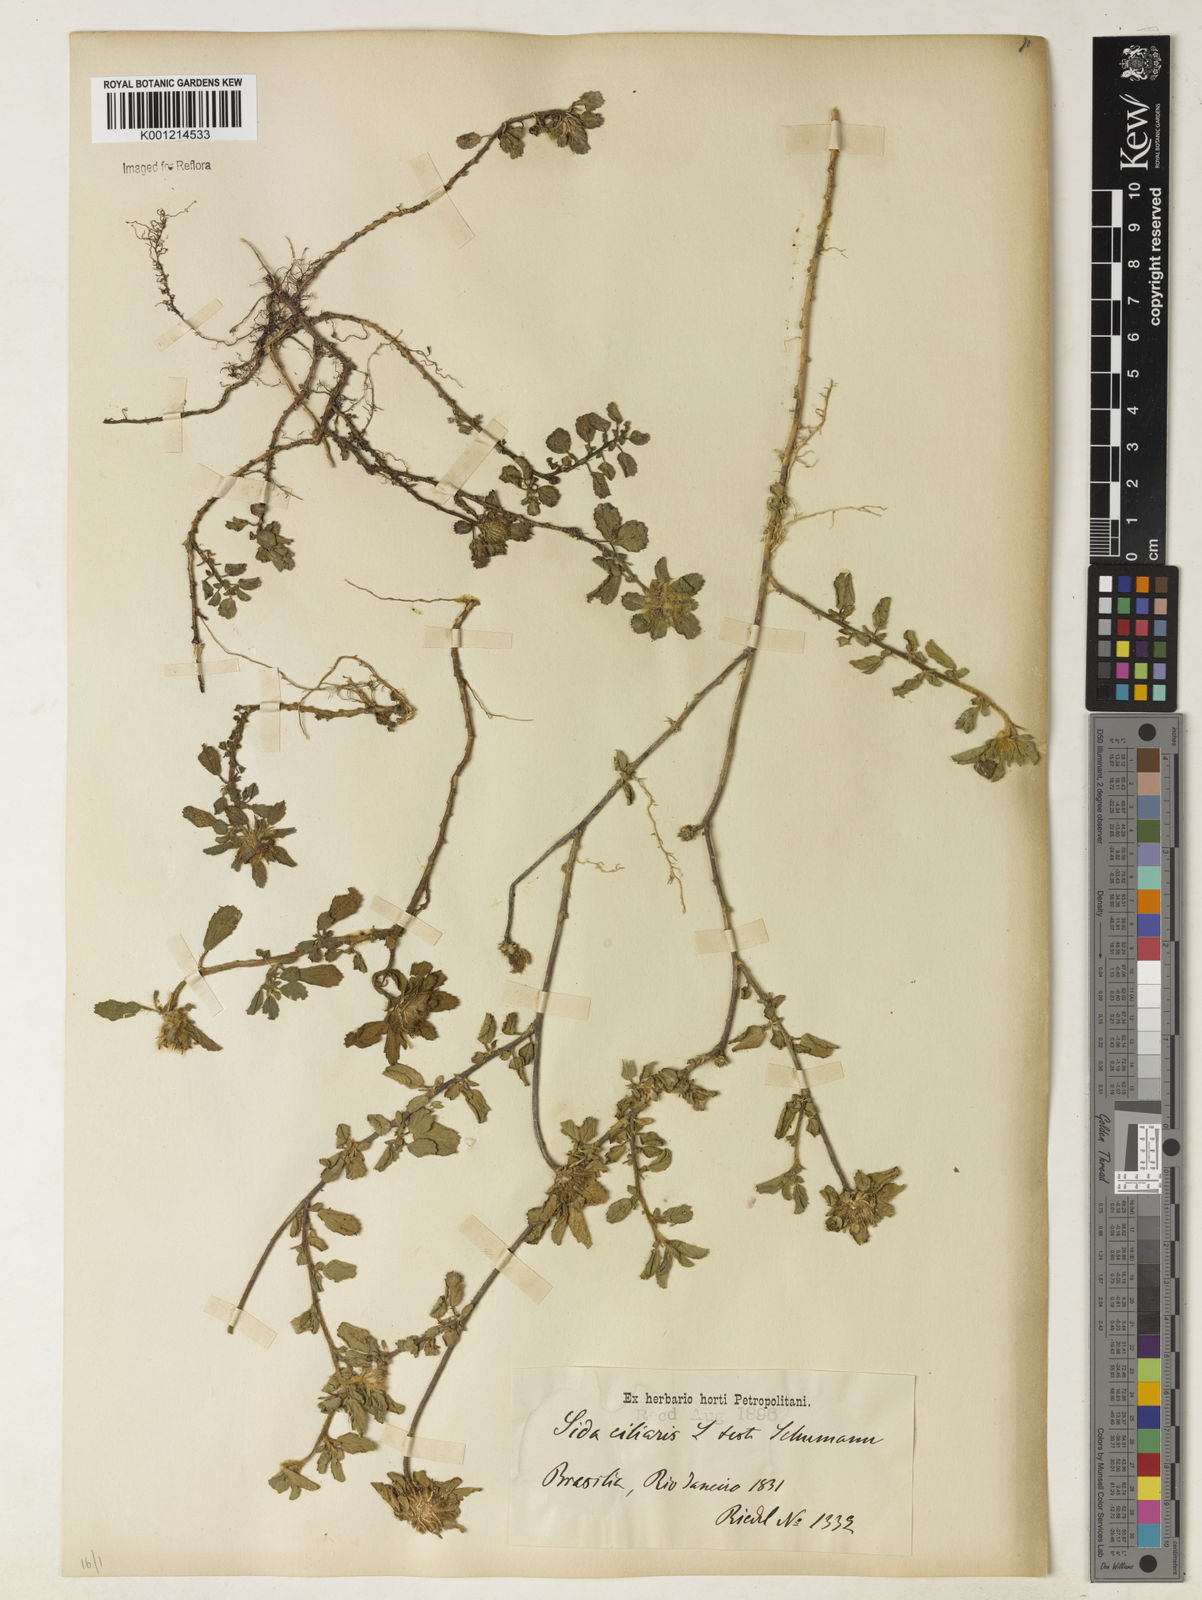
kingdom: Plantae
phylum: Tracheophyta
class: Magnoliopsida
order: Malvales
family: Malvaceae
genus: Sida
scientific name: Sida ciliaris
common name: Bracted fanpetals
